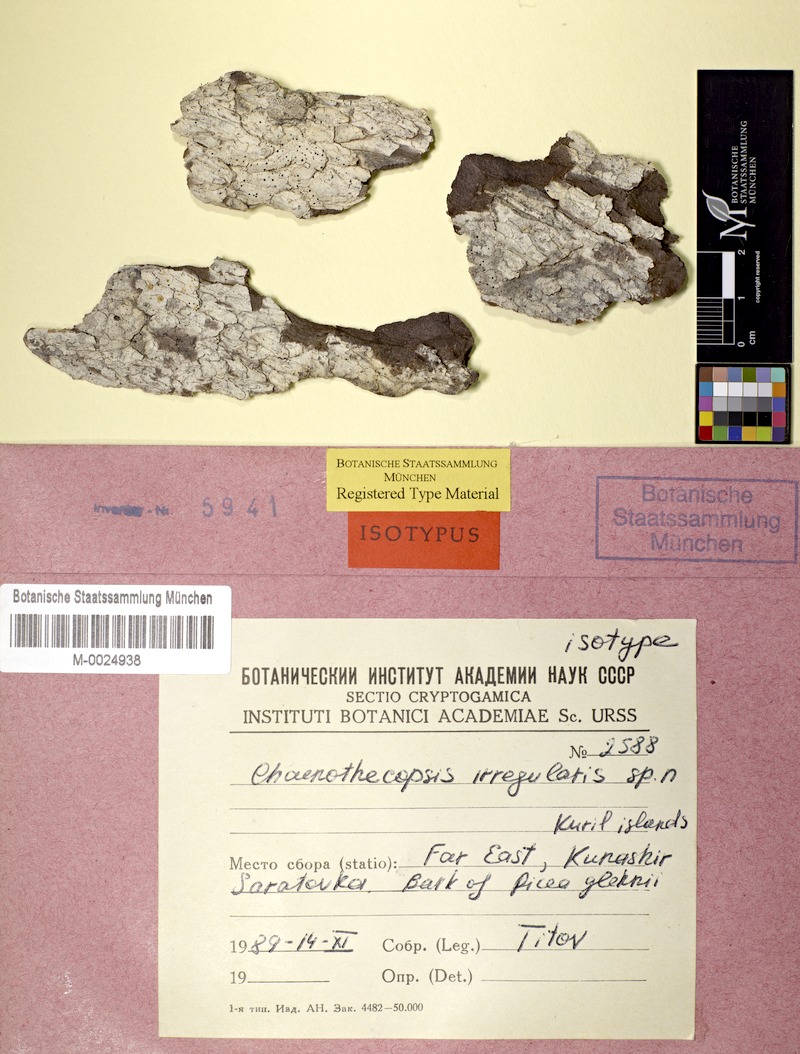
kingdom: Fungi
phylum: Ascomycota
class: Eurotiomycetes
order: Mycocaliciales
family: Mycocaliciaceae
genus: Chaenothecopsis
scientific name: Chaenothecopsis irregularis
